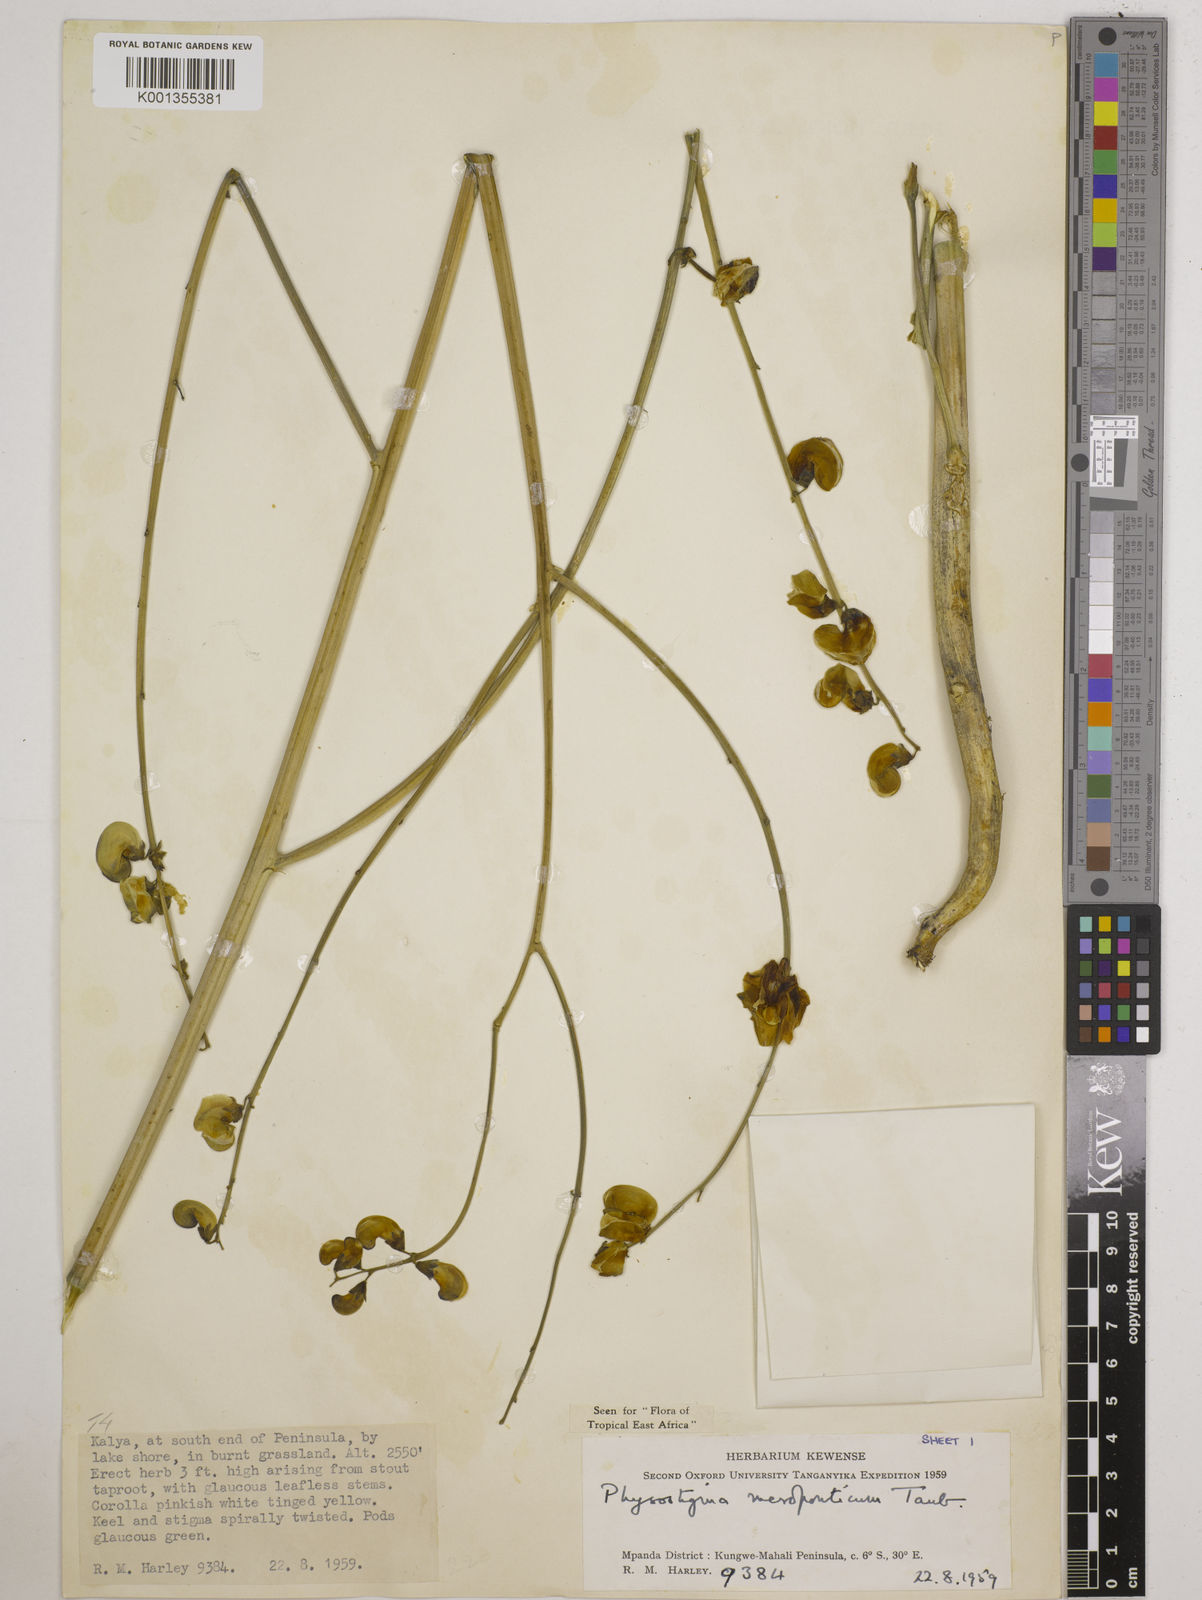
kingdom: Plantae
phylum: Tracheophyta
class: Magnoliopsida
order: Fabales
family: Fabaceae
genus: Physostigma
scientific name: Physostigma mesoponticum
